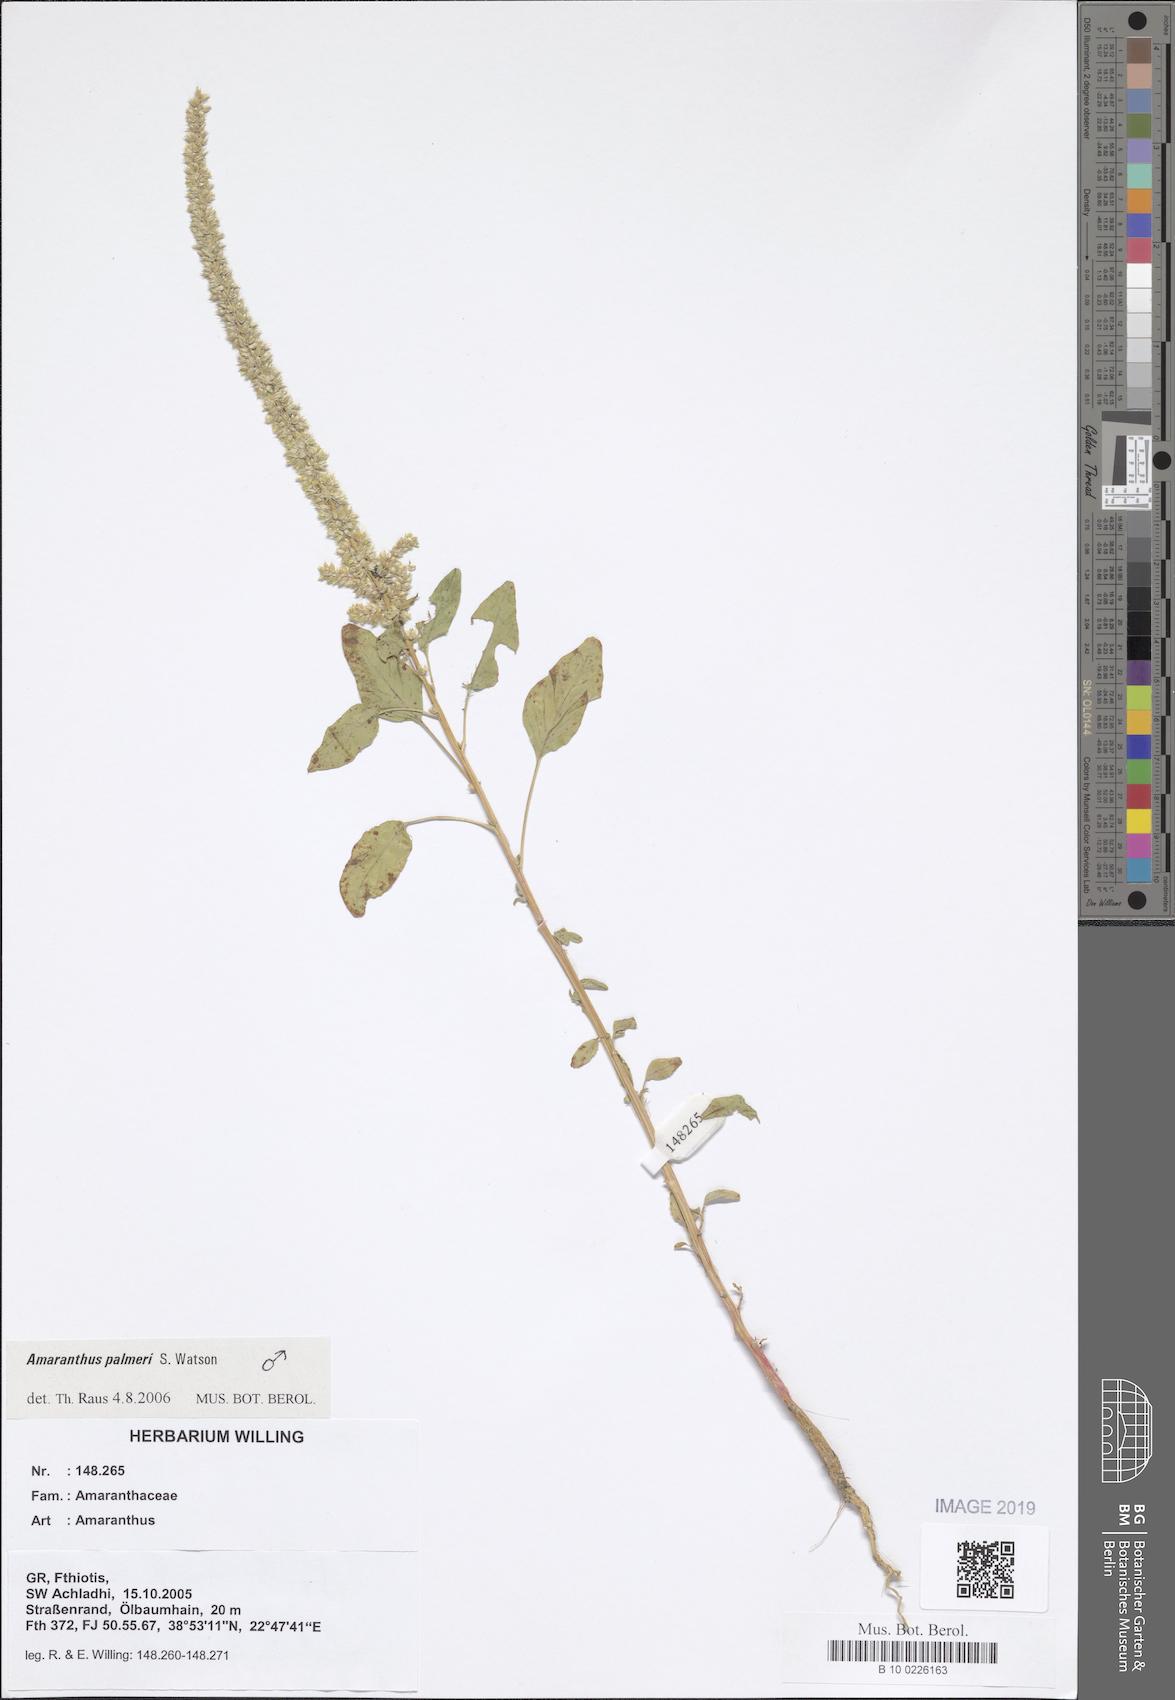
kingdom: Plantae
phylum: Tracheophyta
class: Magnoliopsida
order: Caryophyllales
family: Amaranthaceae
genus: Amaranthus
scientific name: Amaranthus
